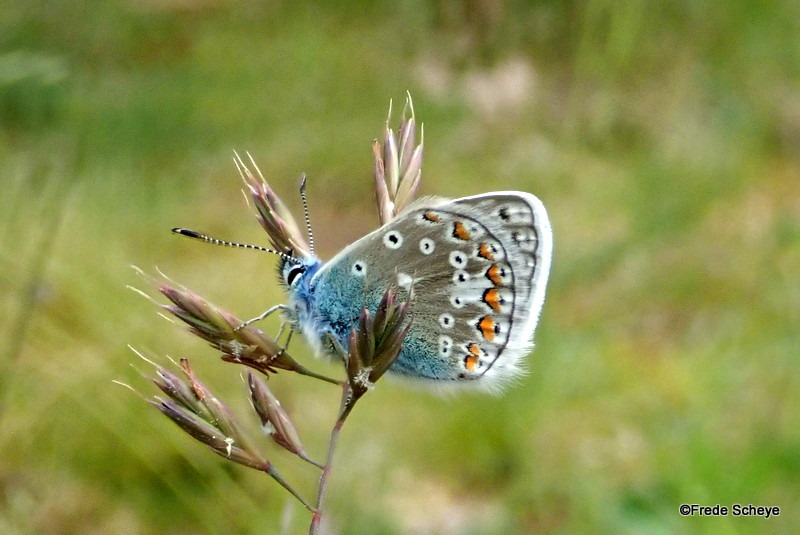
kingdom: Animalia
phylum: Arthropoda
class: Insecta
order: Lepidoptera
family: Lycaenidae
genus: Polyommatus
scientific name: Polyommatus icarus
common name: Almindelig blåfugl
